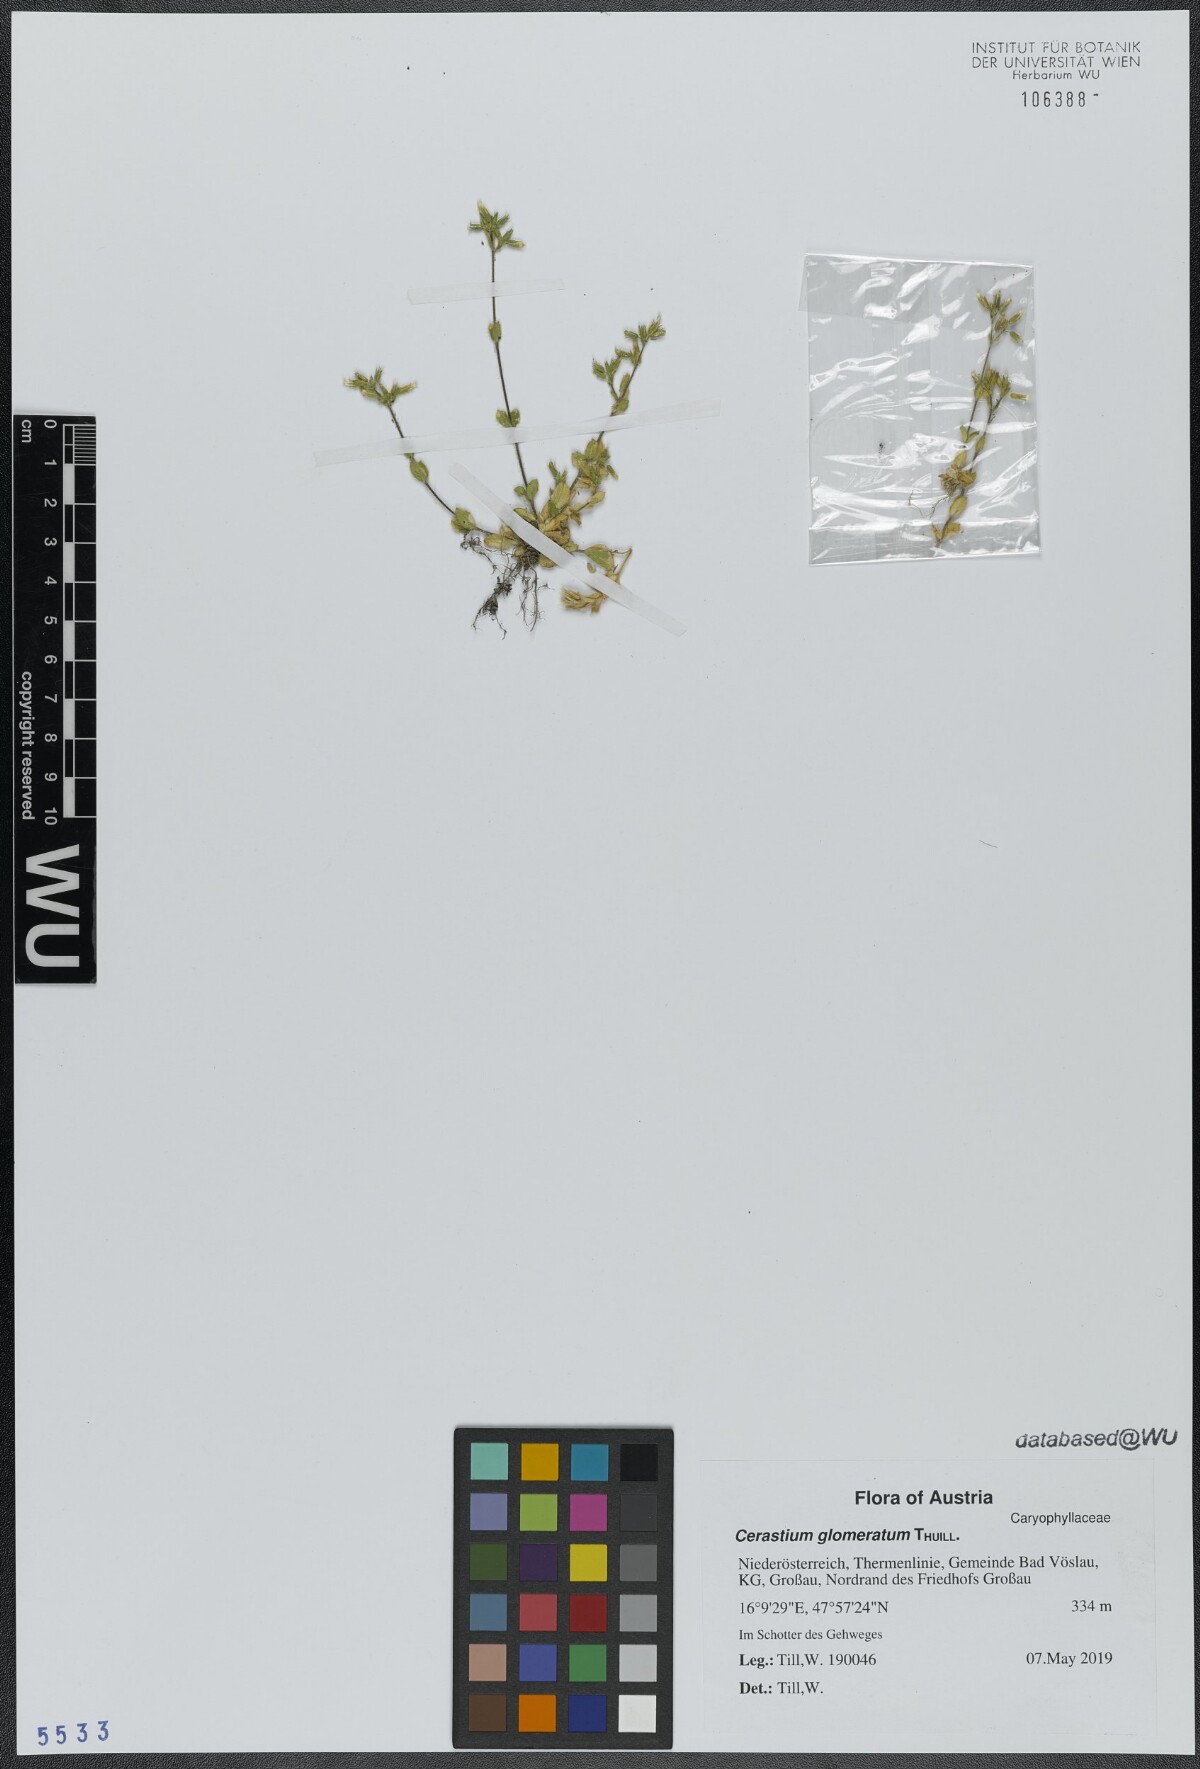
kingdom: Plantae
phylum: Tracheophyta
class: Magnoliopsida
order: Caryophyllales
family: Caryophyllaceae
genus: Cerastium
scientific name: Cerastium glomeratum
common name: Sticky chickweed
